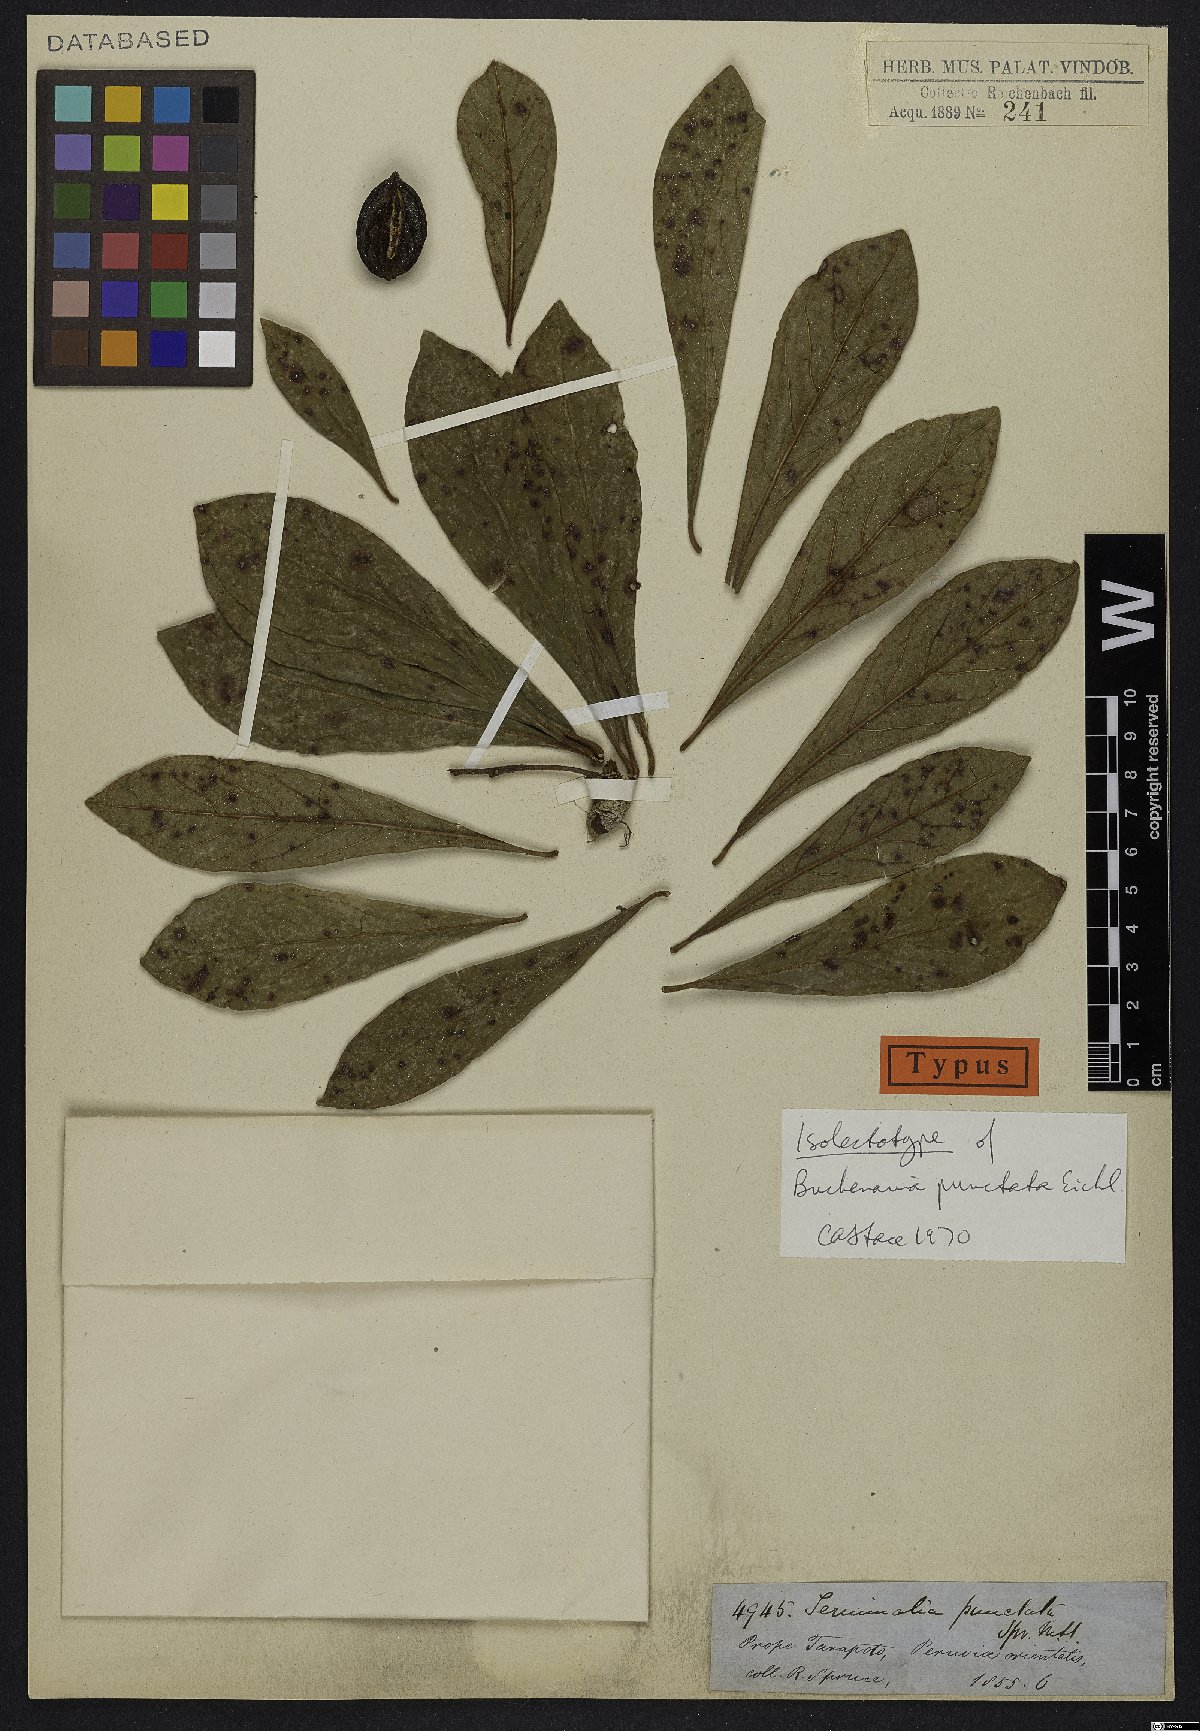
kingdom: Plantae
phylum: Tracheophyta
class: Magnoliopsida
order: Myrtales
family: Combretaceae
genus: Terminalia
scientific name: Terminalia eichleriana
